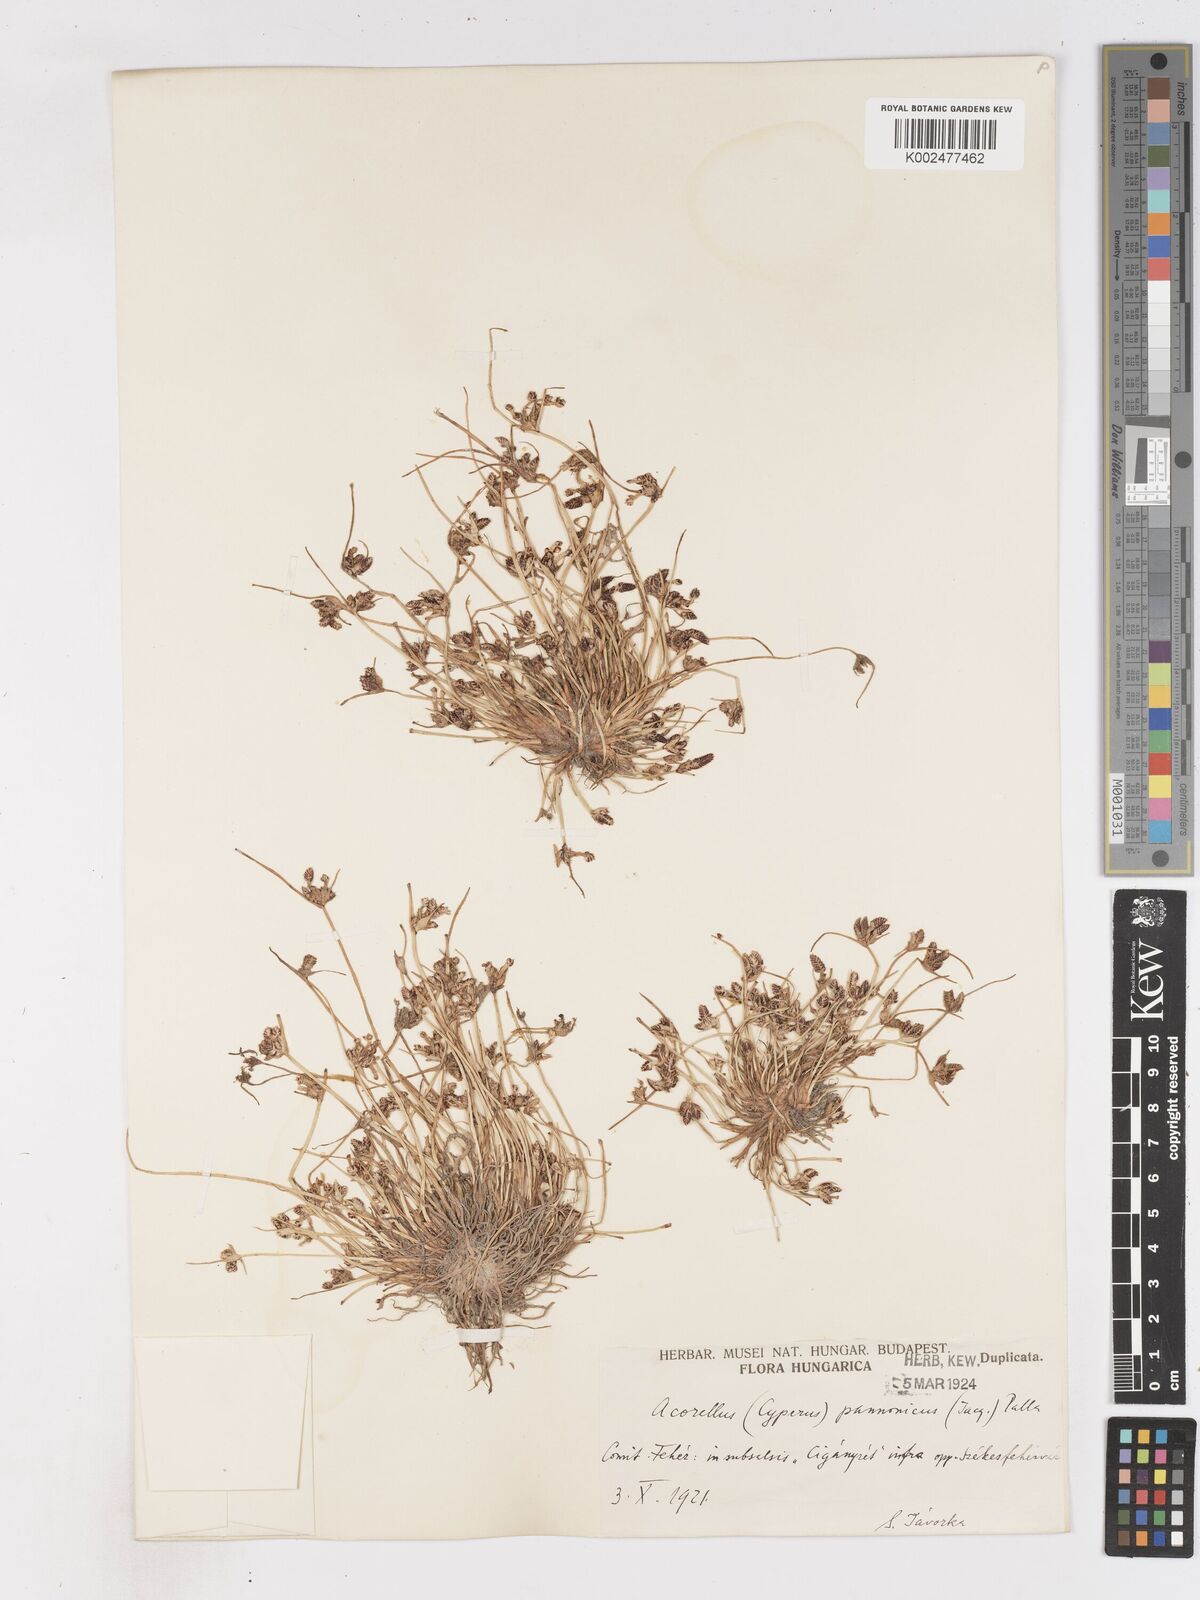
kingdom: Plantae
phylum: Tracheophyta
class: Liliopsida
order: Poales
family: Cyperaceae
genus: Cyperus
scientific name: Cyperus pannonicus
